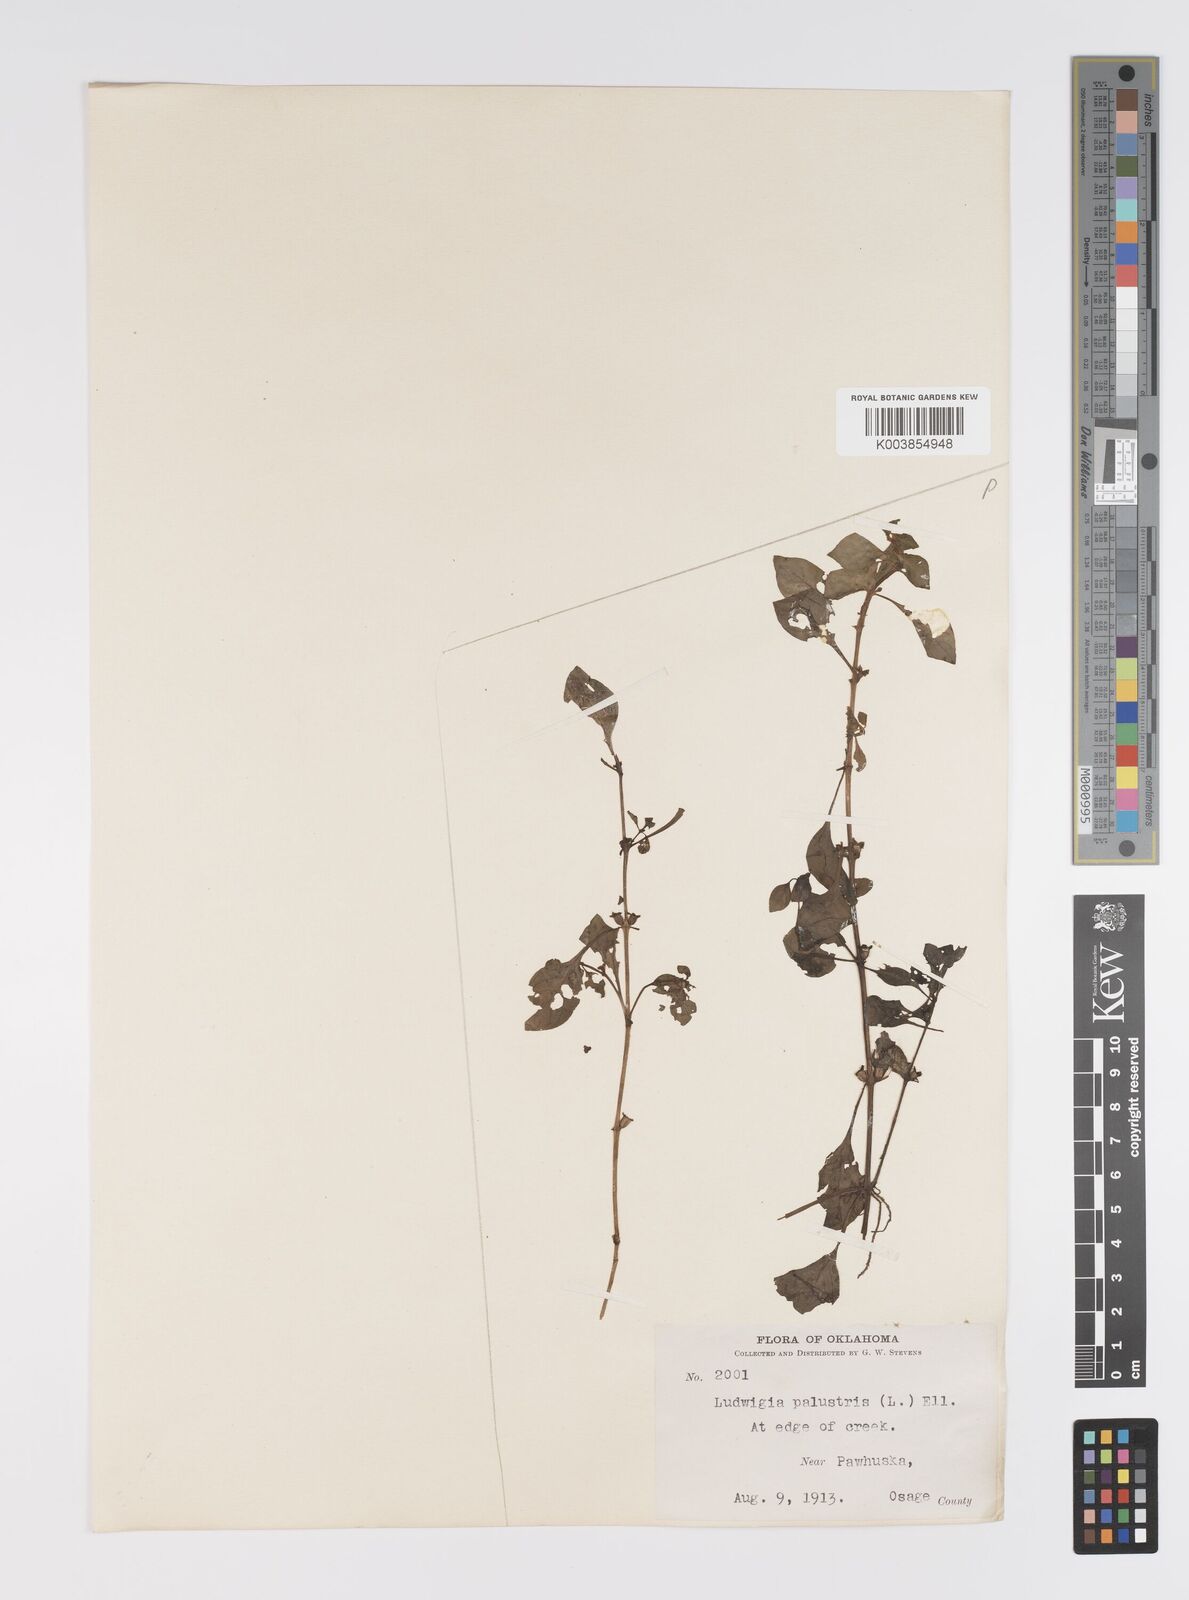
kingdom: Plantae
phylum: Tracheophyta
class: Magnoliopsida
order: Myrtales
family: Onagraceae
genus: Ludwigia
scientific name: Ludwigia palustris
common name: Hampshire-purslane
